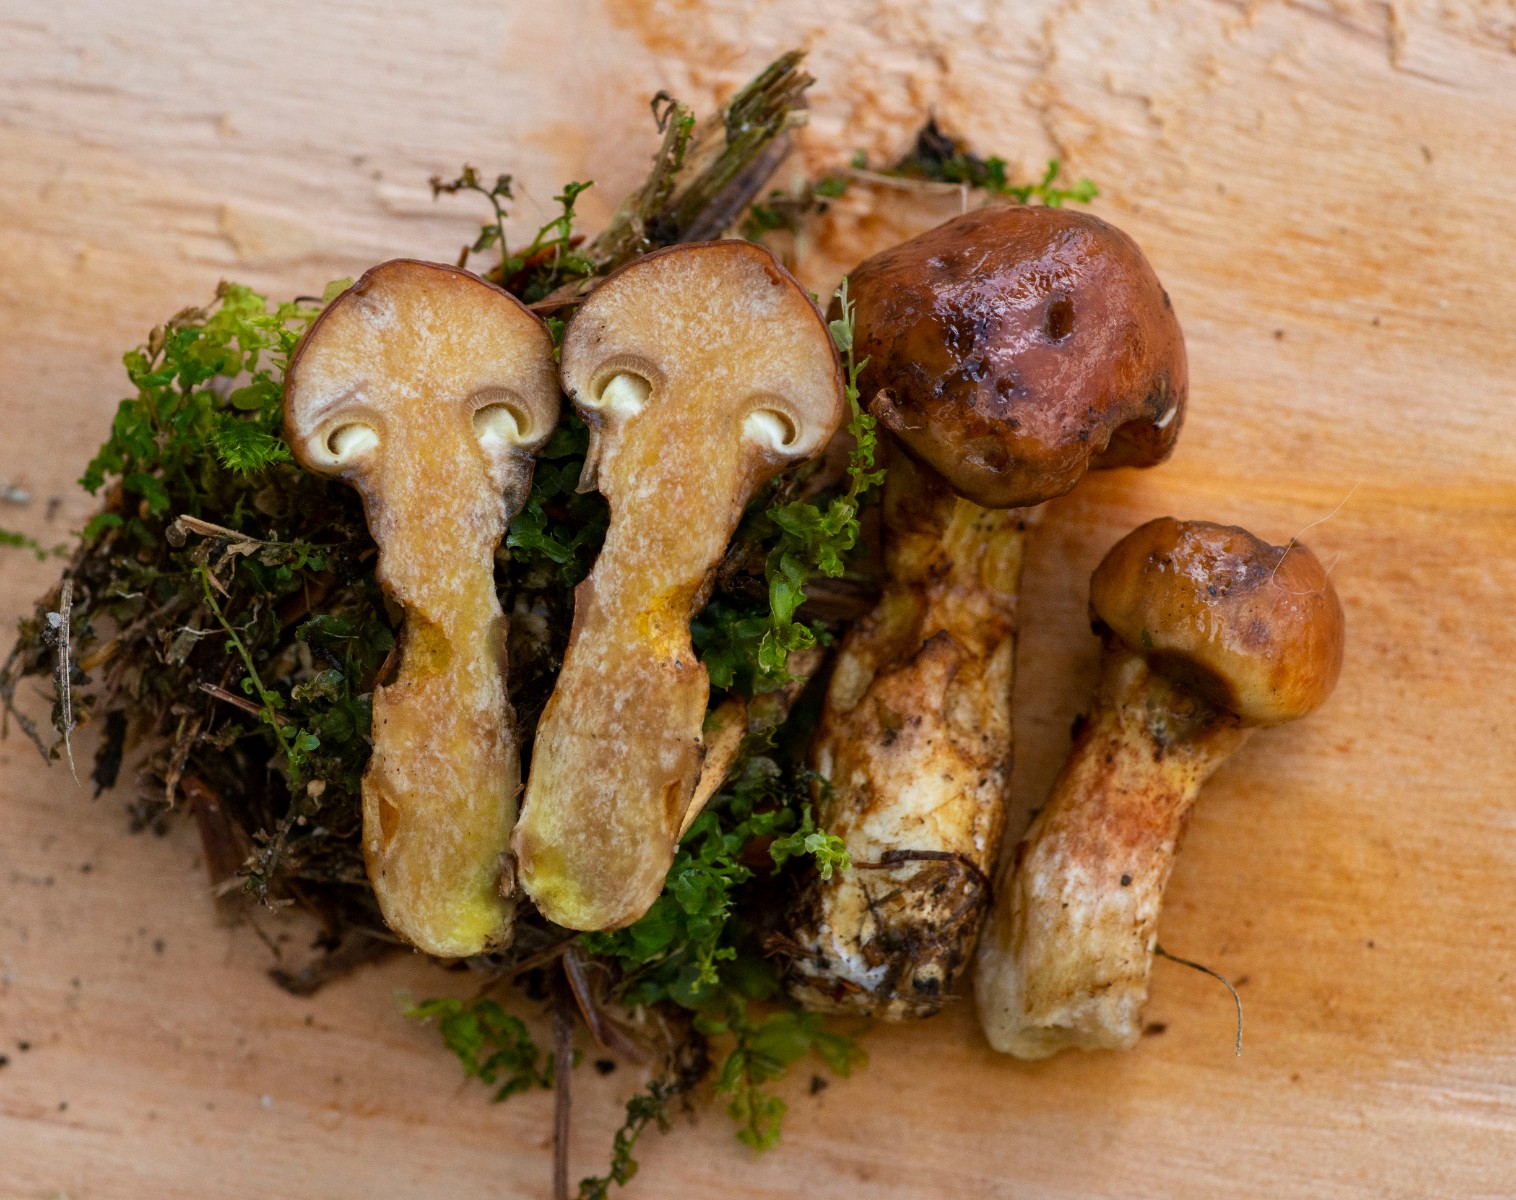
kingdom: Fungi
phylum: Basidiomycota
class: Agaricomycetes
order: Boletales
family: Suillaceae
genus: Suillus
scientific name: Suillus grevillei
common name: lærke-slimrørhat
